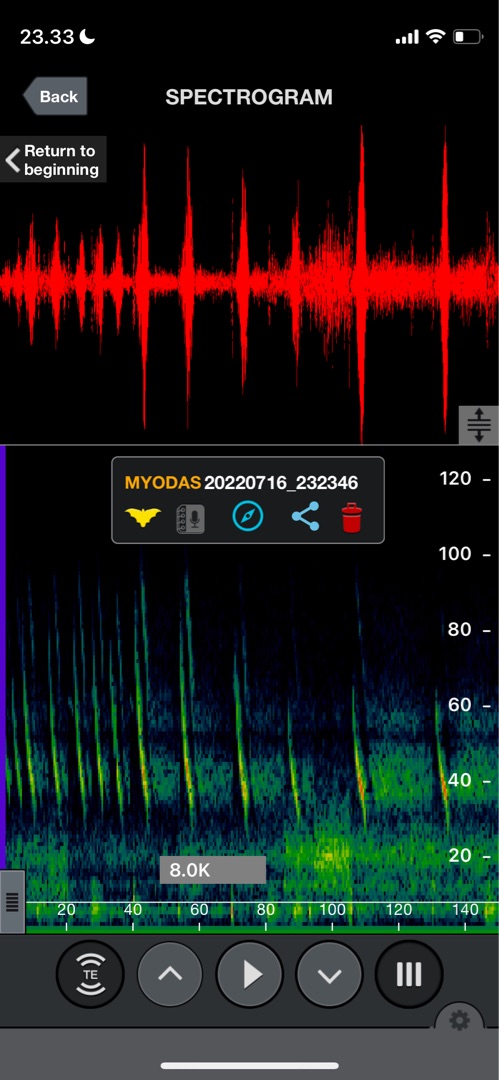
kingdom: Animalia
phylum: Chordata
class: Mammalia
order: Chiroptera
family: Vespertilionidae
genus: Myotis
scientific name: Myotis dasycneme
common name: Damflagermus
